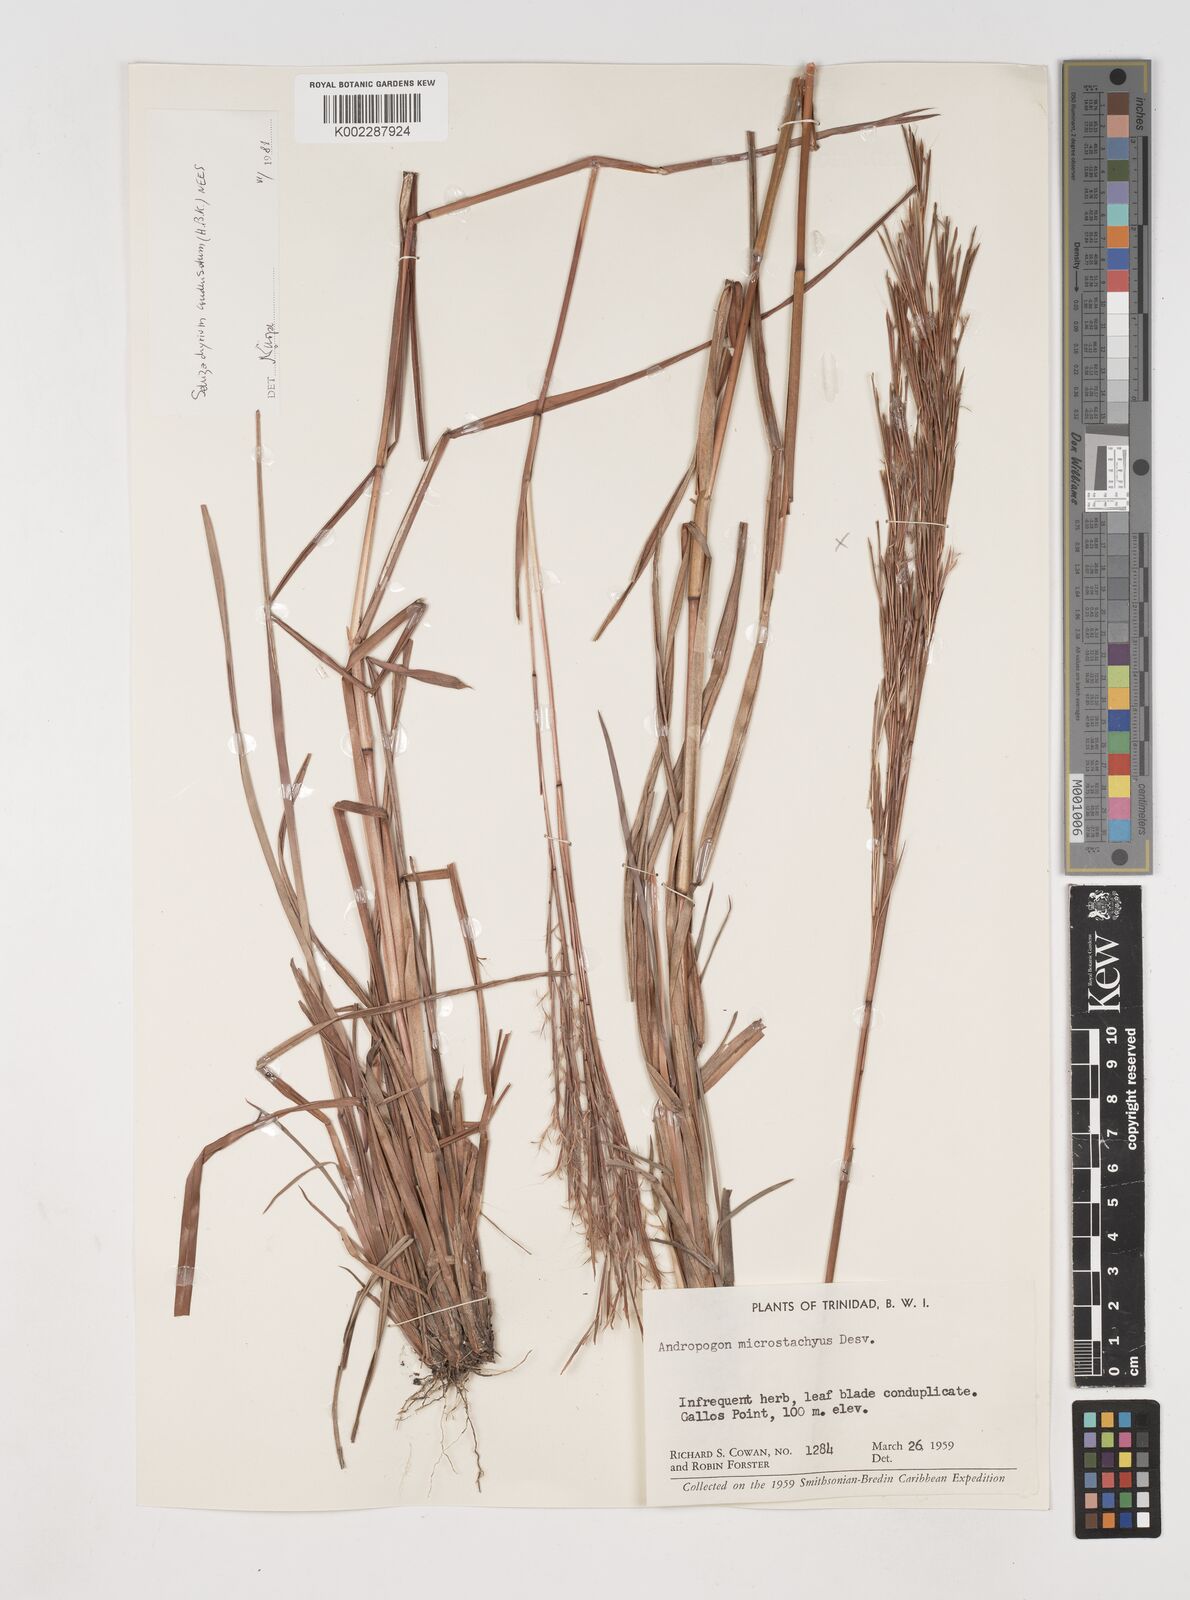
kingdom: Plantae
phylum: Tracheophyta
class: Liliopsida
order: Poales
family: Poaceae
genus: Schizachyrium
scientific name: Schizachyrium condensatum
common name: Bush beardgrass
